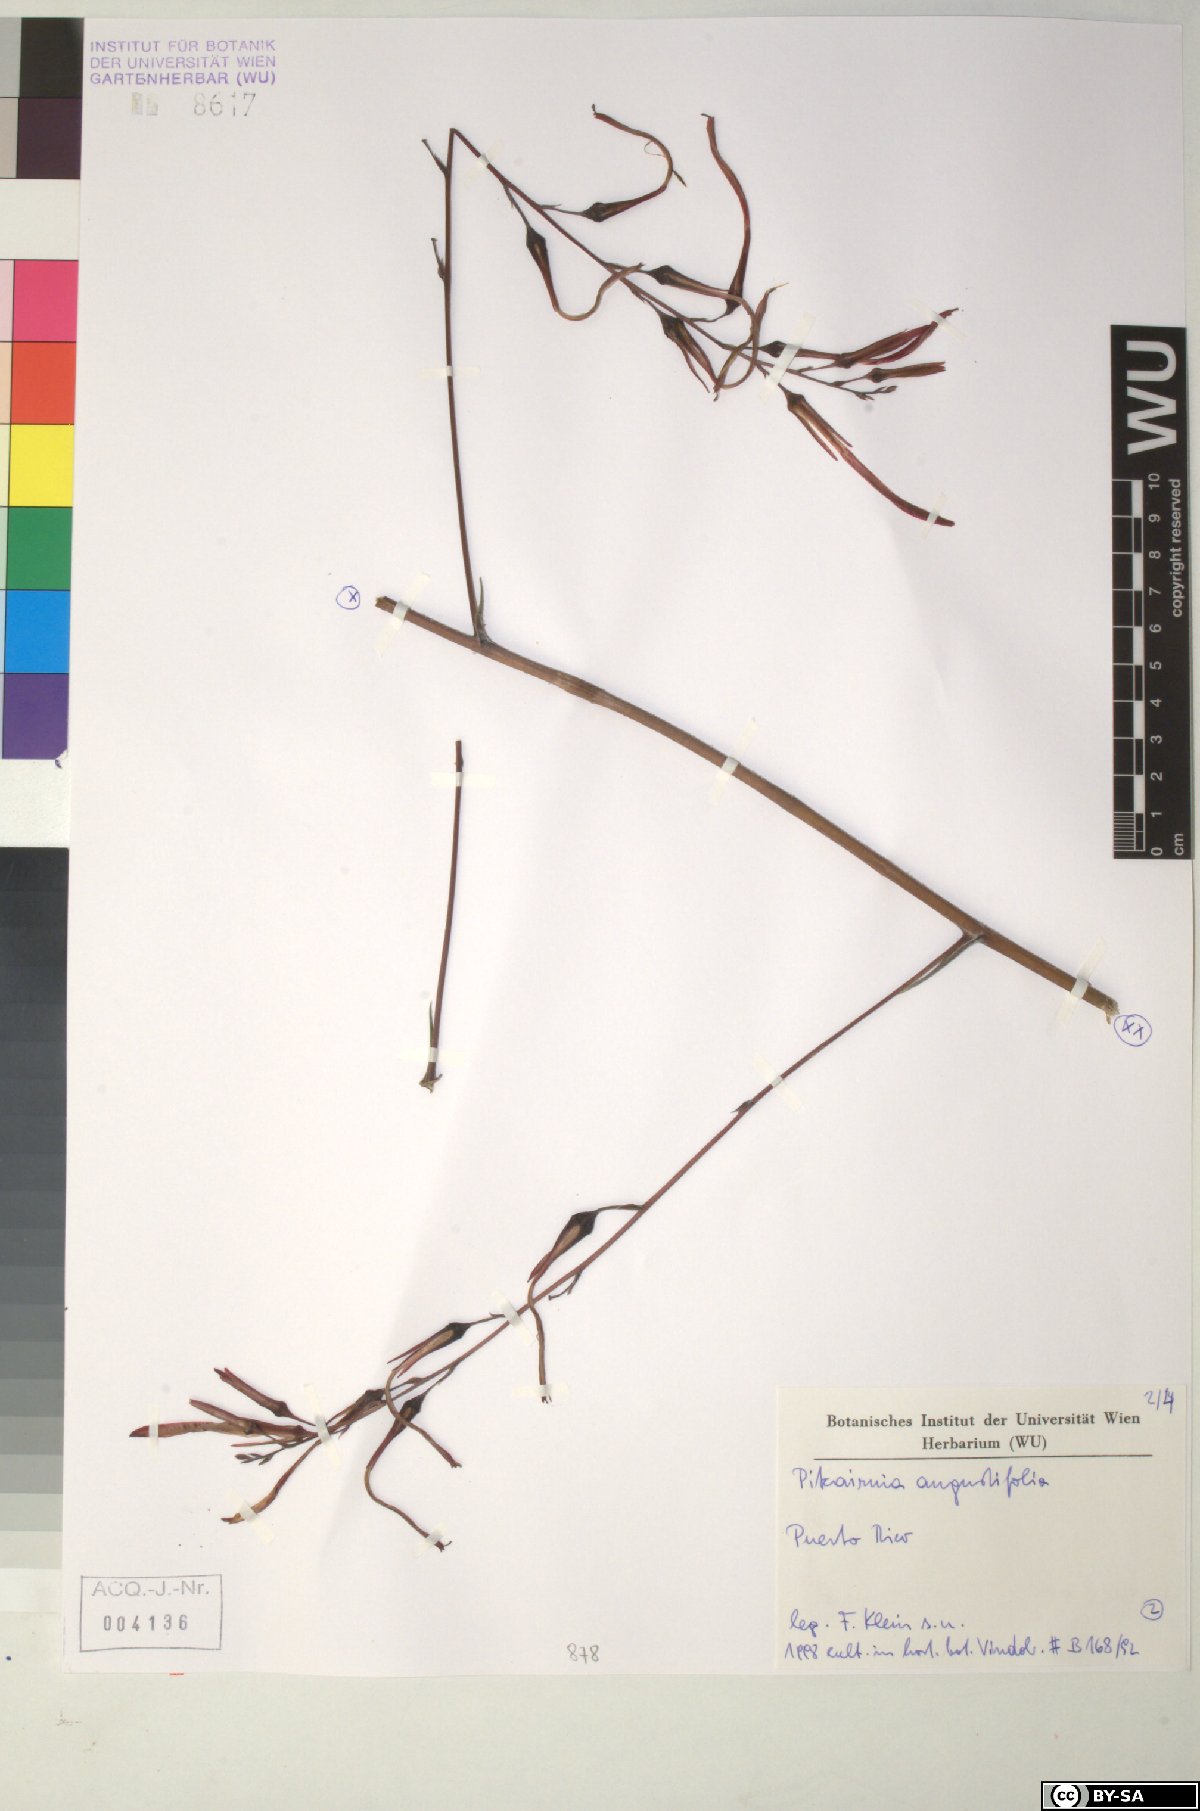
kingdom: Plantae
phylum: Tracheophyta
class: Liliopsida
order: Poales
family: Bromeliaceae
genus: Pitcairnia
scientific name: Pitcairnia angustifolia
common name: Clapper
